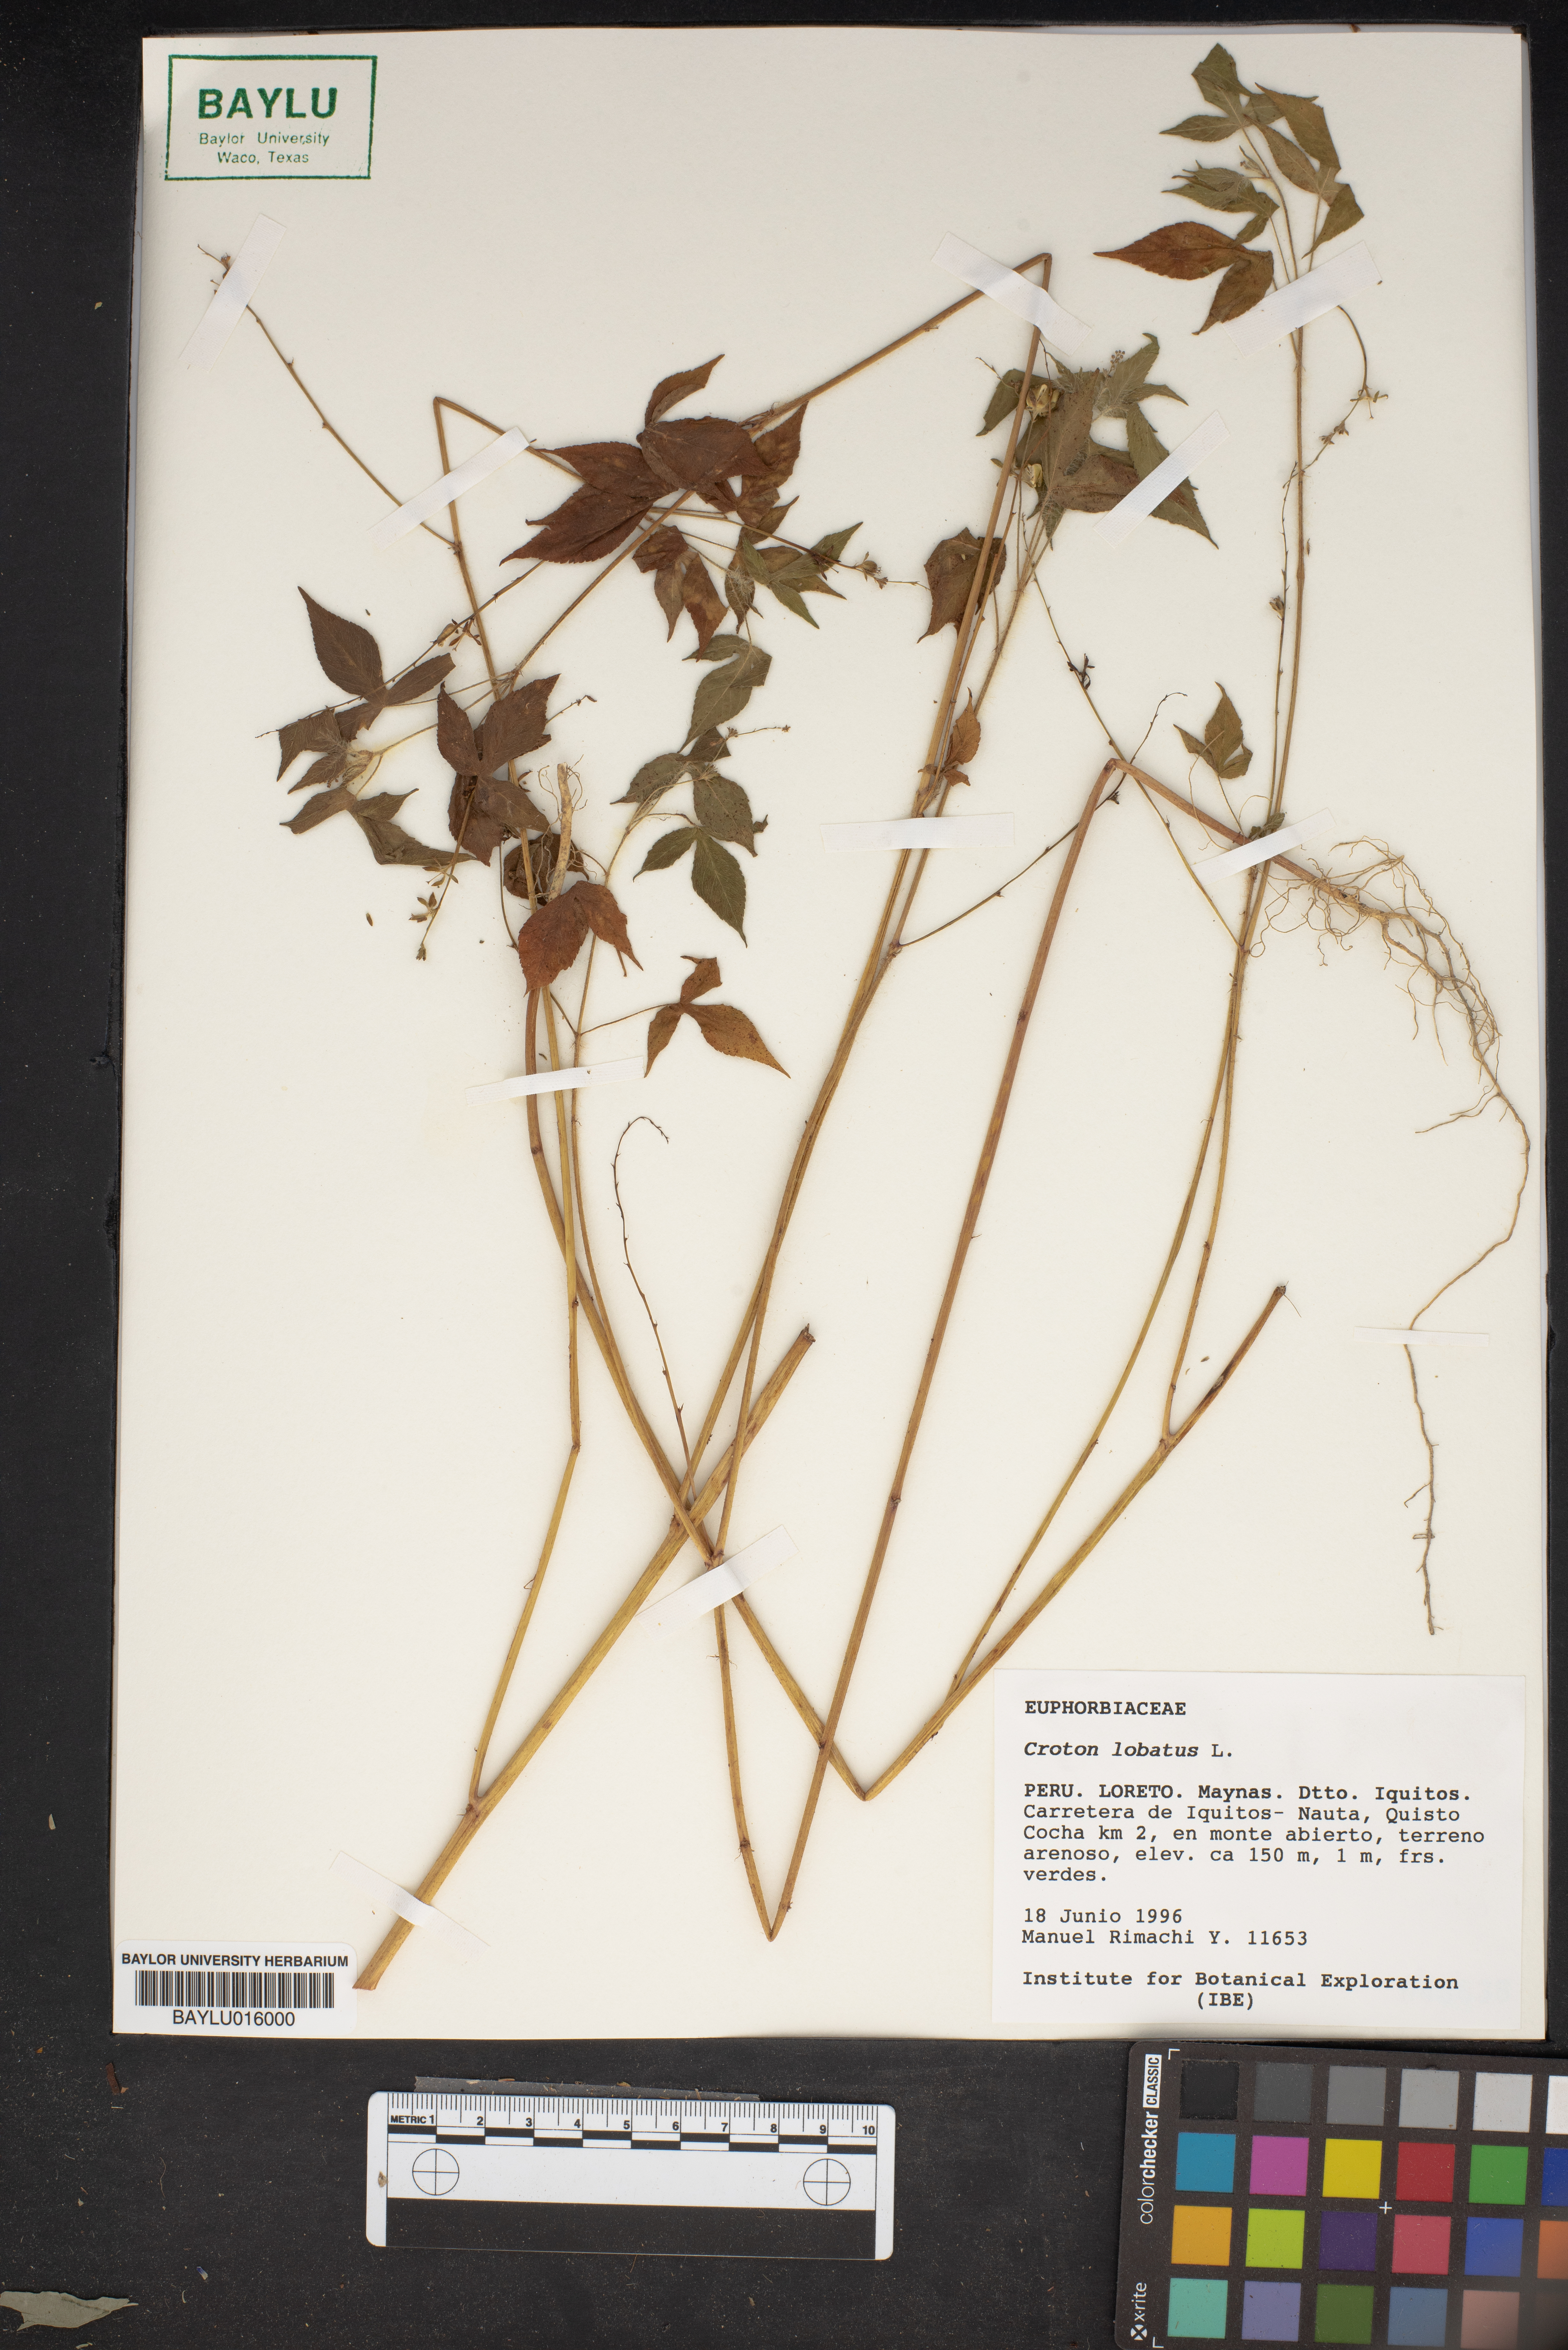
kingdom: Plantae
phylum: Tracheophyta
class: Magnoliopsida
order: Malpighiales
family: Euphorbiaceae
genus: Astraea
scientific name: Astraea lobata
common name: Lobed croton
